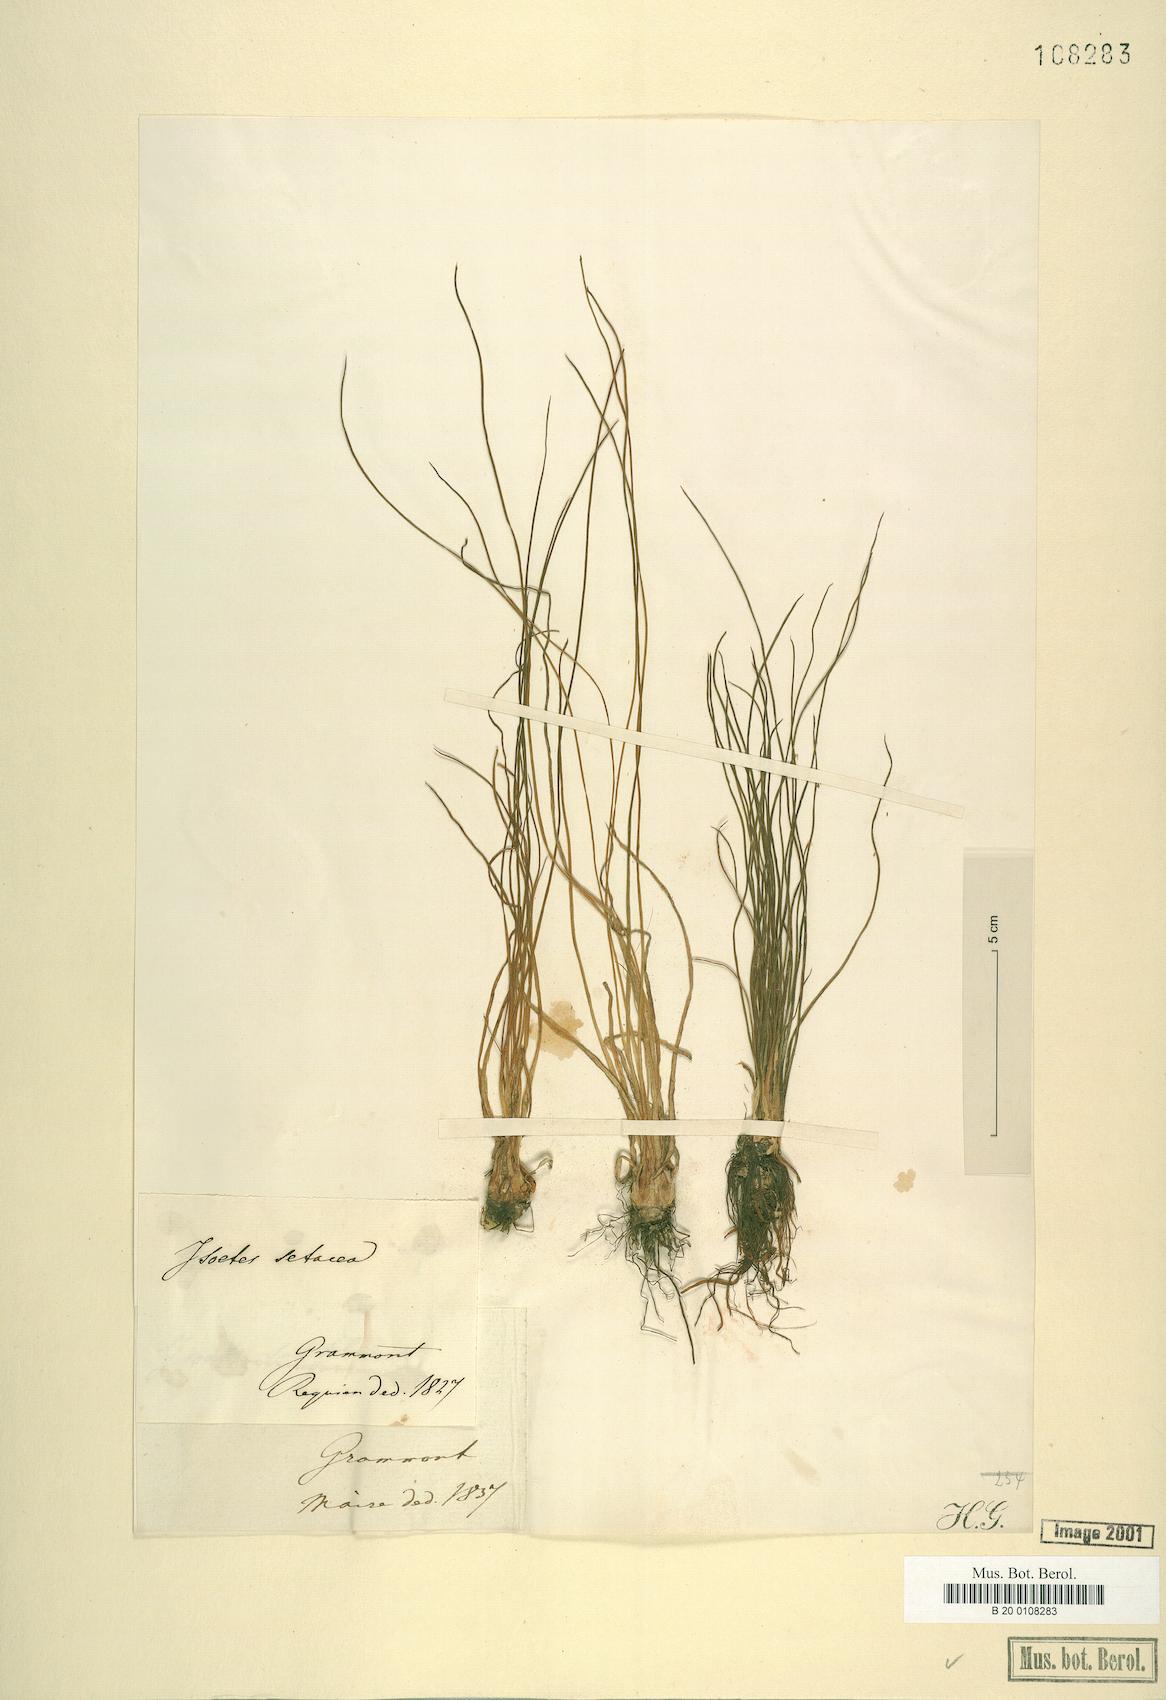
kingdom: Plantae
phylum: Tracheophyta
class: Lycopodiopsida
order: Isoetales
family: Isoetaceae
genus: Isoetes
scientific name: Isoetes lacustris
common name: Common quillwort
